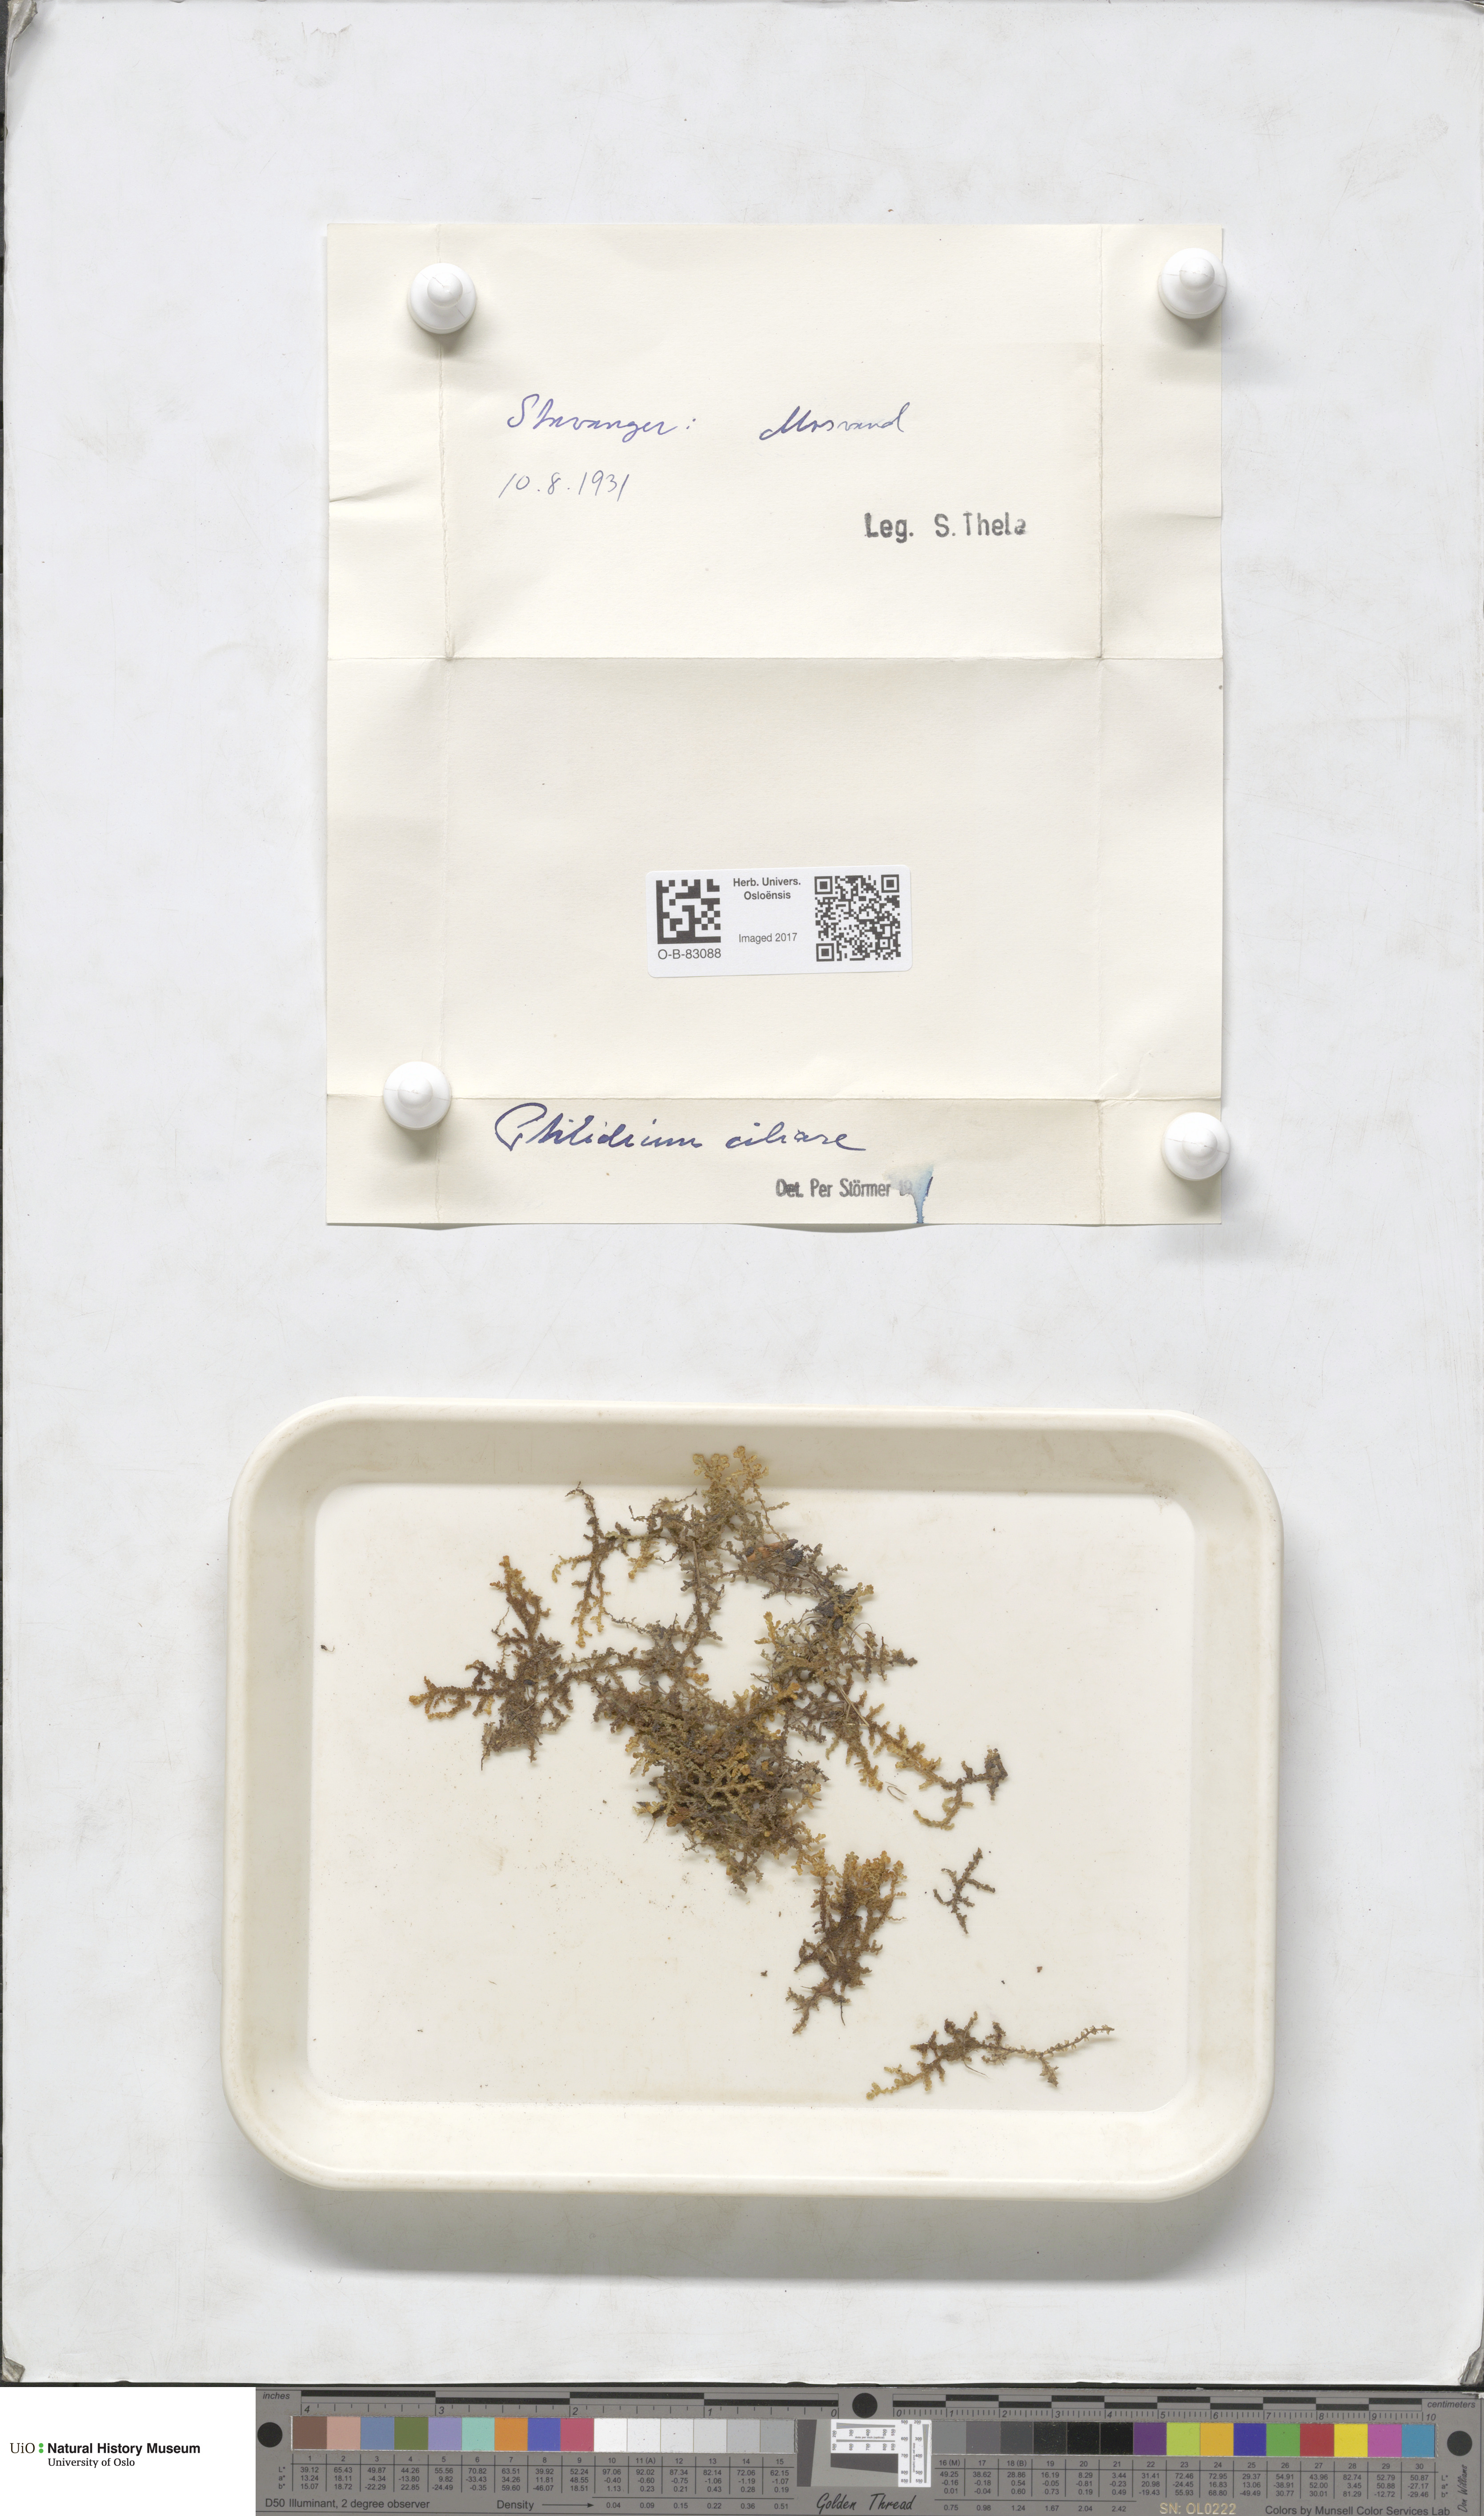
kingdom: Plantae
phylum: Marchantiophyta
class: Jungermanniopsida
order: Ptilidiales
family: Ptilidiaceae
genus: Ptilidium
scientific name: Ptilidium ciliare
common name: Ciliate fringewort
